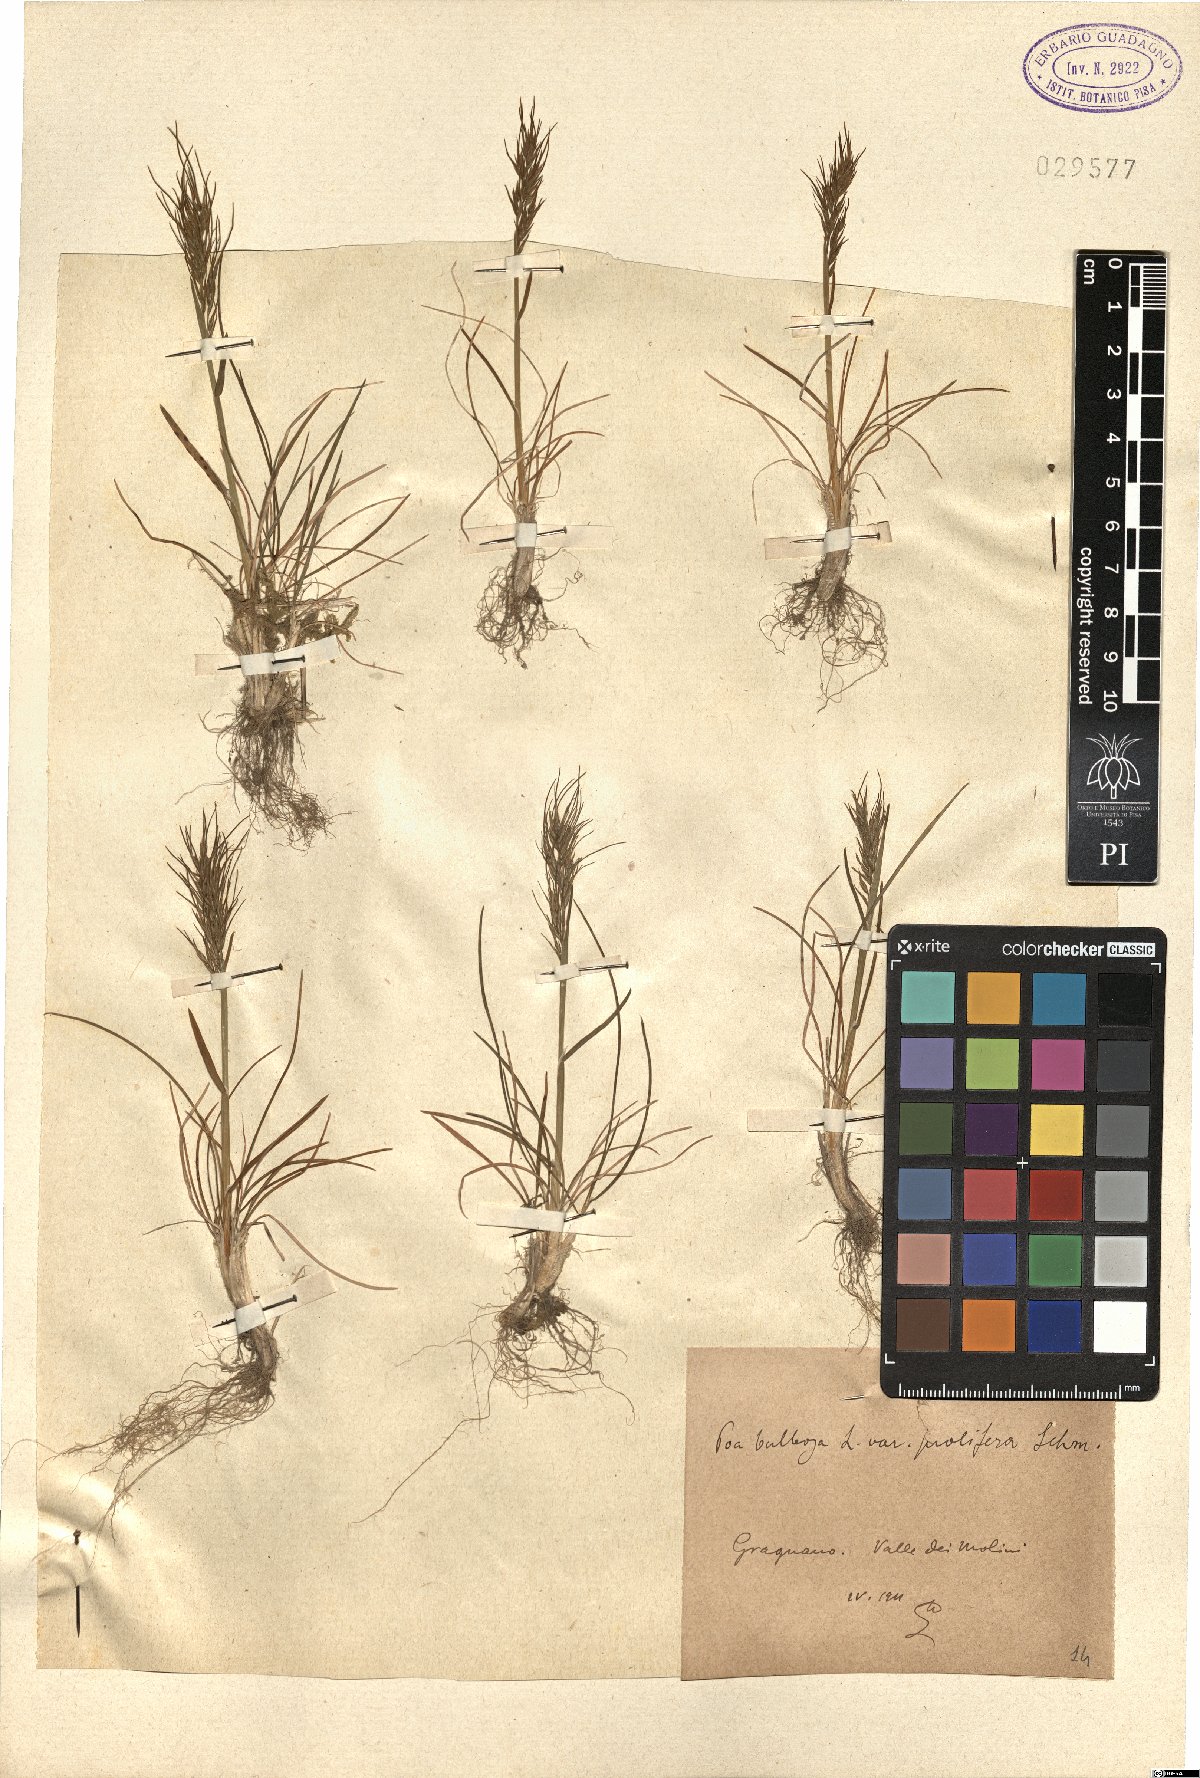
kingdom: Plantae
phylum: Tracheophyta
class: Liliopsida
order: Poales
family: Poaceae
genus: Poa
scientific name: Poa bulbosa
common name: Bulbous bluegrass
